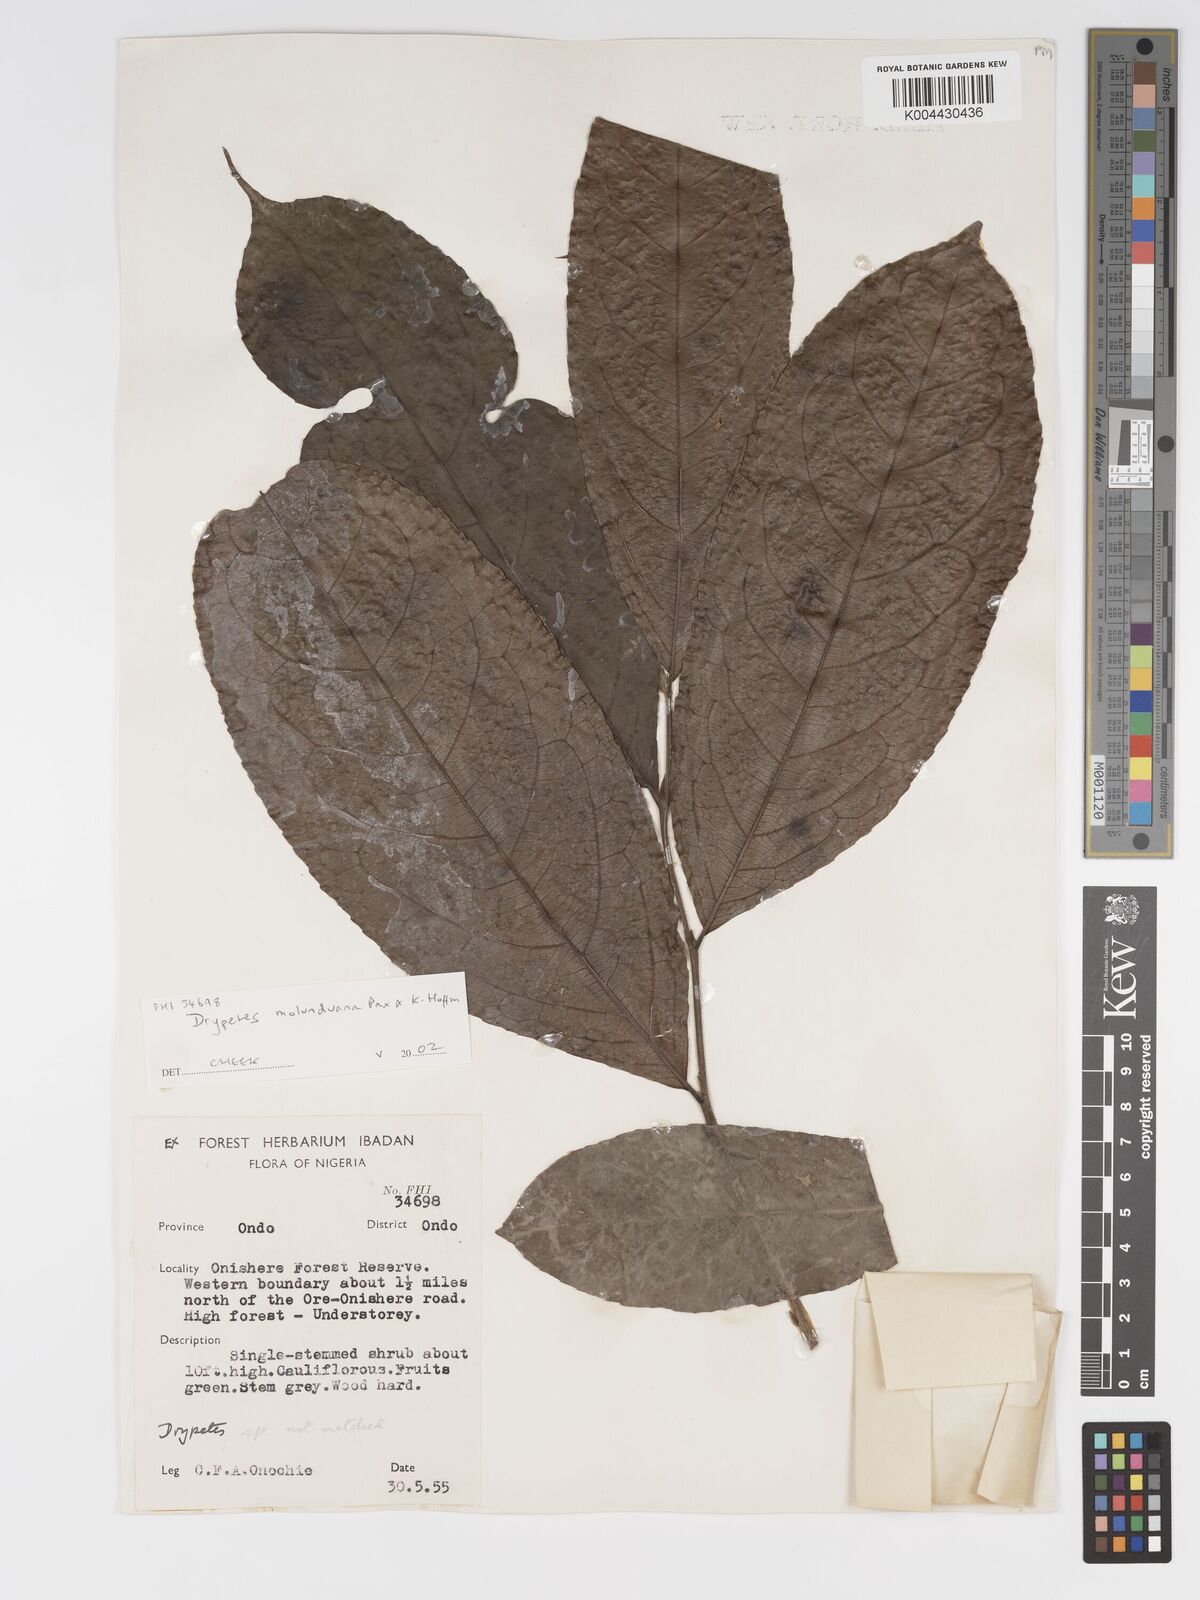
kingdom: Plantae
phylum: Tracheophyta
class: Magnoliopsida
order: Malpighiales
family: Putranjivaceae
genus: Drypetes
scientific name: Drypetes molunduana
